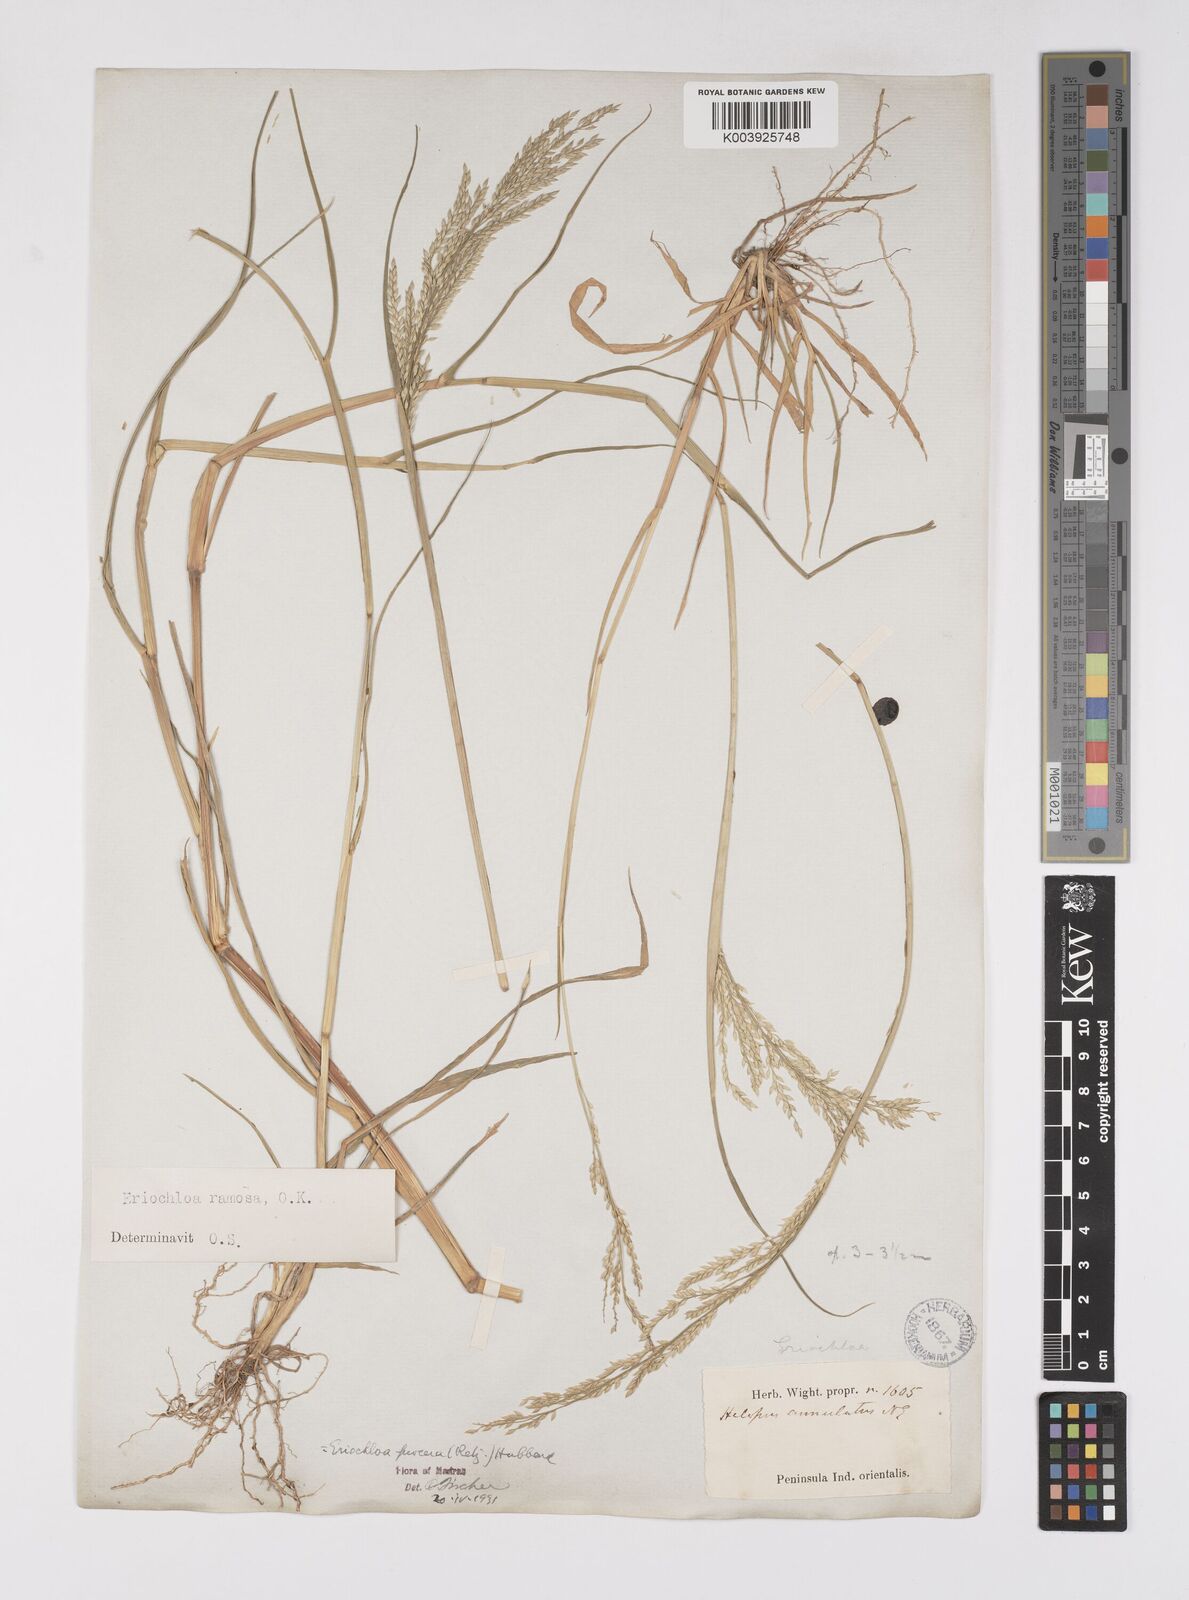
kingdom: Plantae
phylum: Tracheophyta
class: Liliopsida
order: Poales
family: Poaceae
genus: Eriochloa
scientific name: Eriochloa procera
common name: Spring grass
